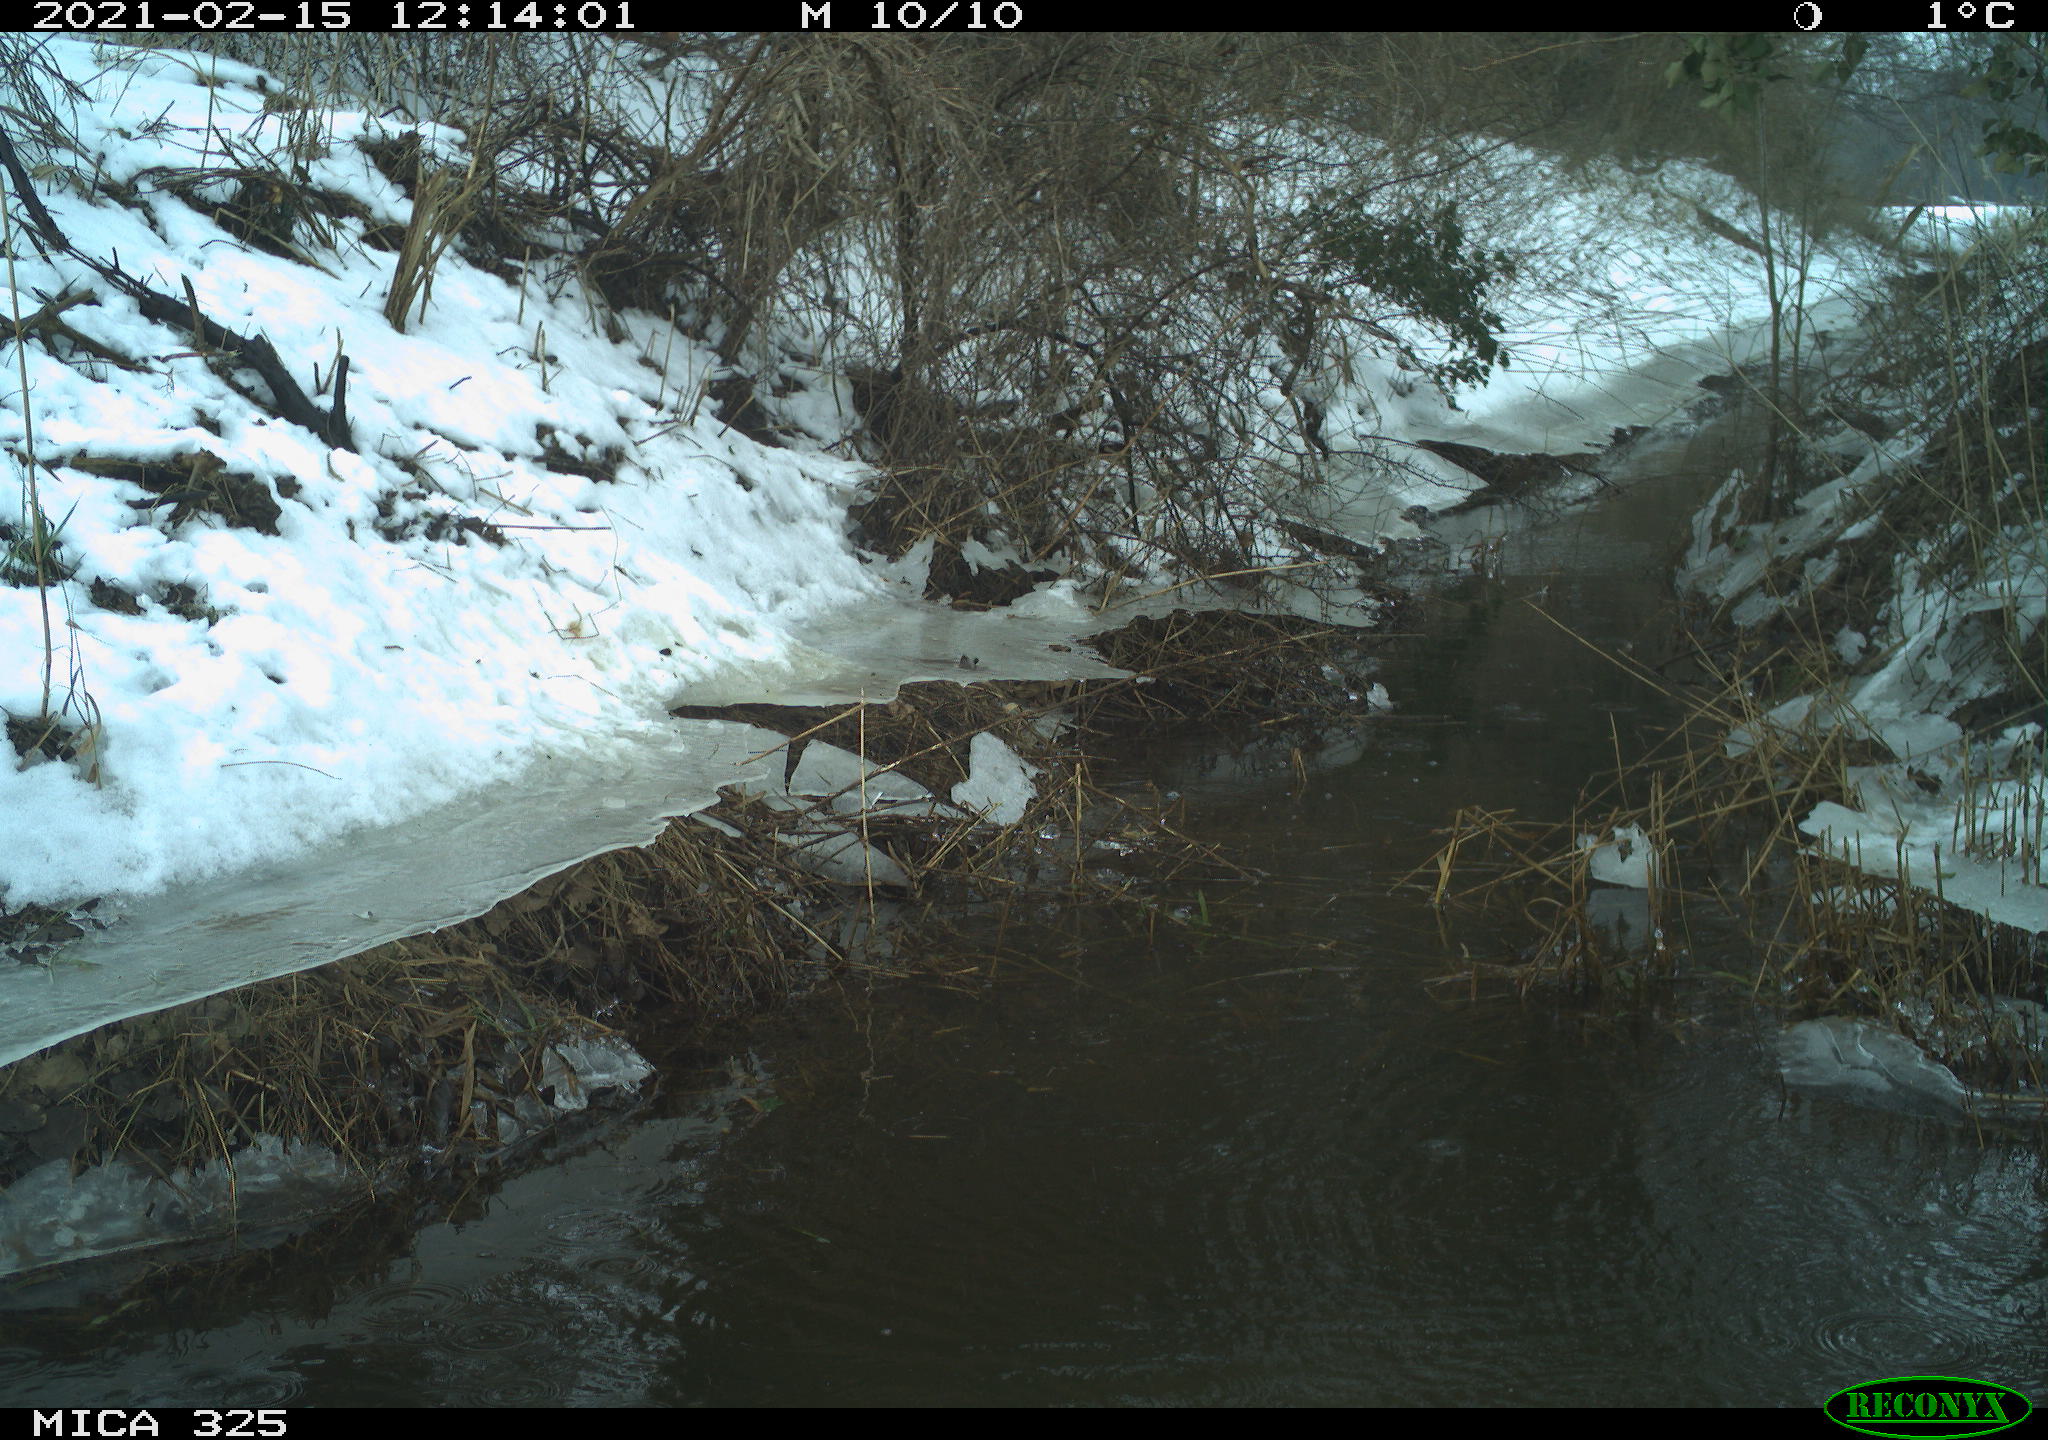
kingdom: Animalia
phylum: Chordata
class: Aves
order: Suliformes
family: Phalacrocoracidae
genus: Phalacrocorax
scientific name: Phalacrocorax carbo
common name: Great cormorant
